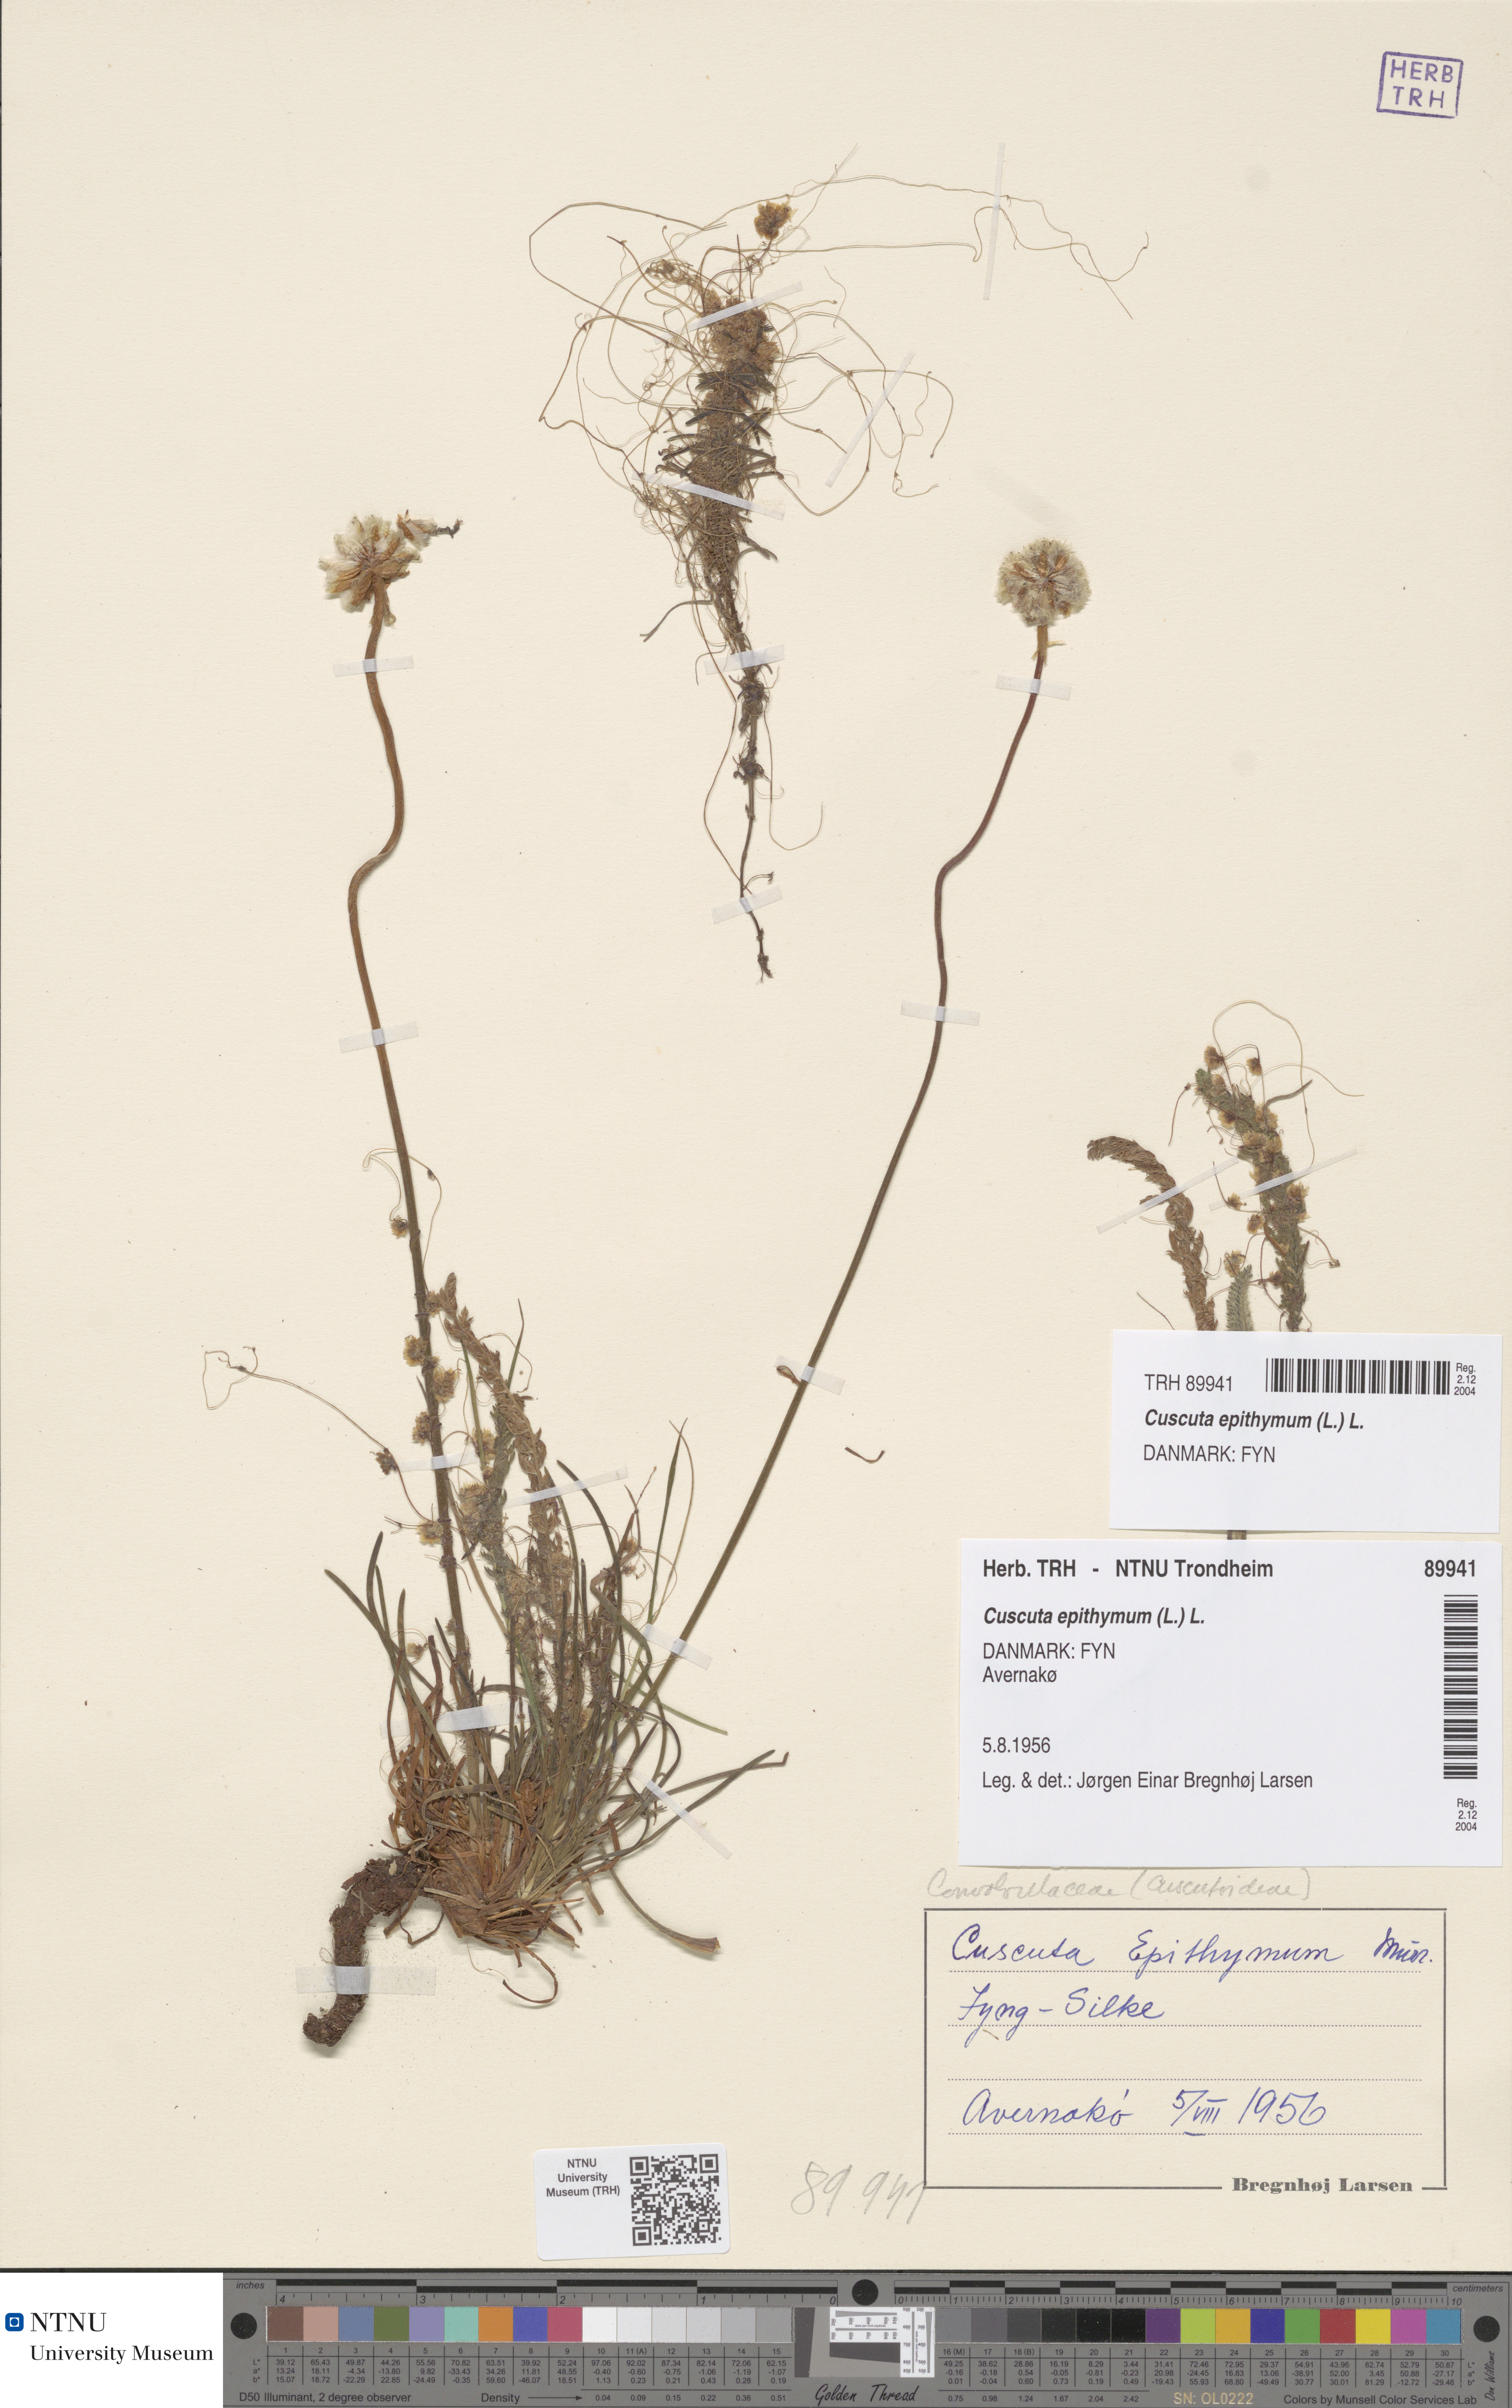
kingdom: Plantae
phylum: Tracheophyta
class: Magnoliopsida
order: Solanales
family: Convolvulaceae
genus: Cuscuta
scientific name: Cuscuta epithymum
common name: Clover dodder
